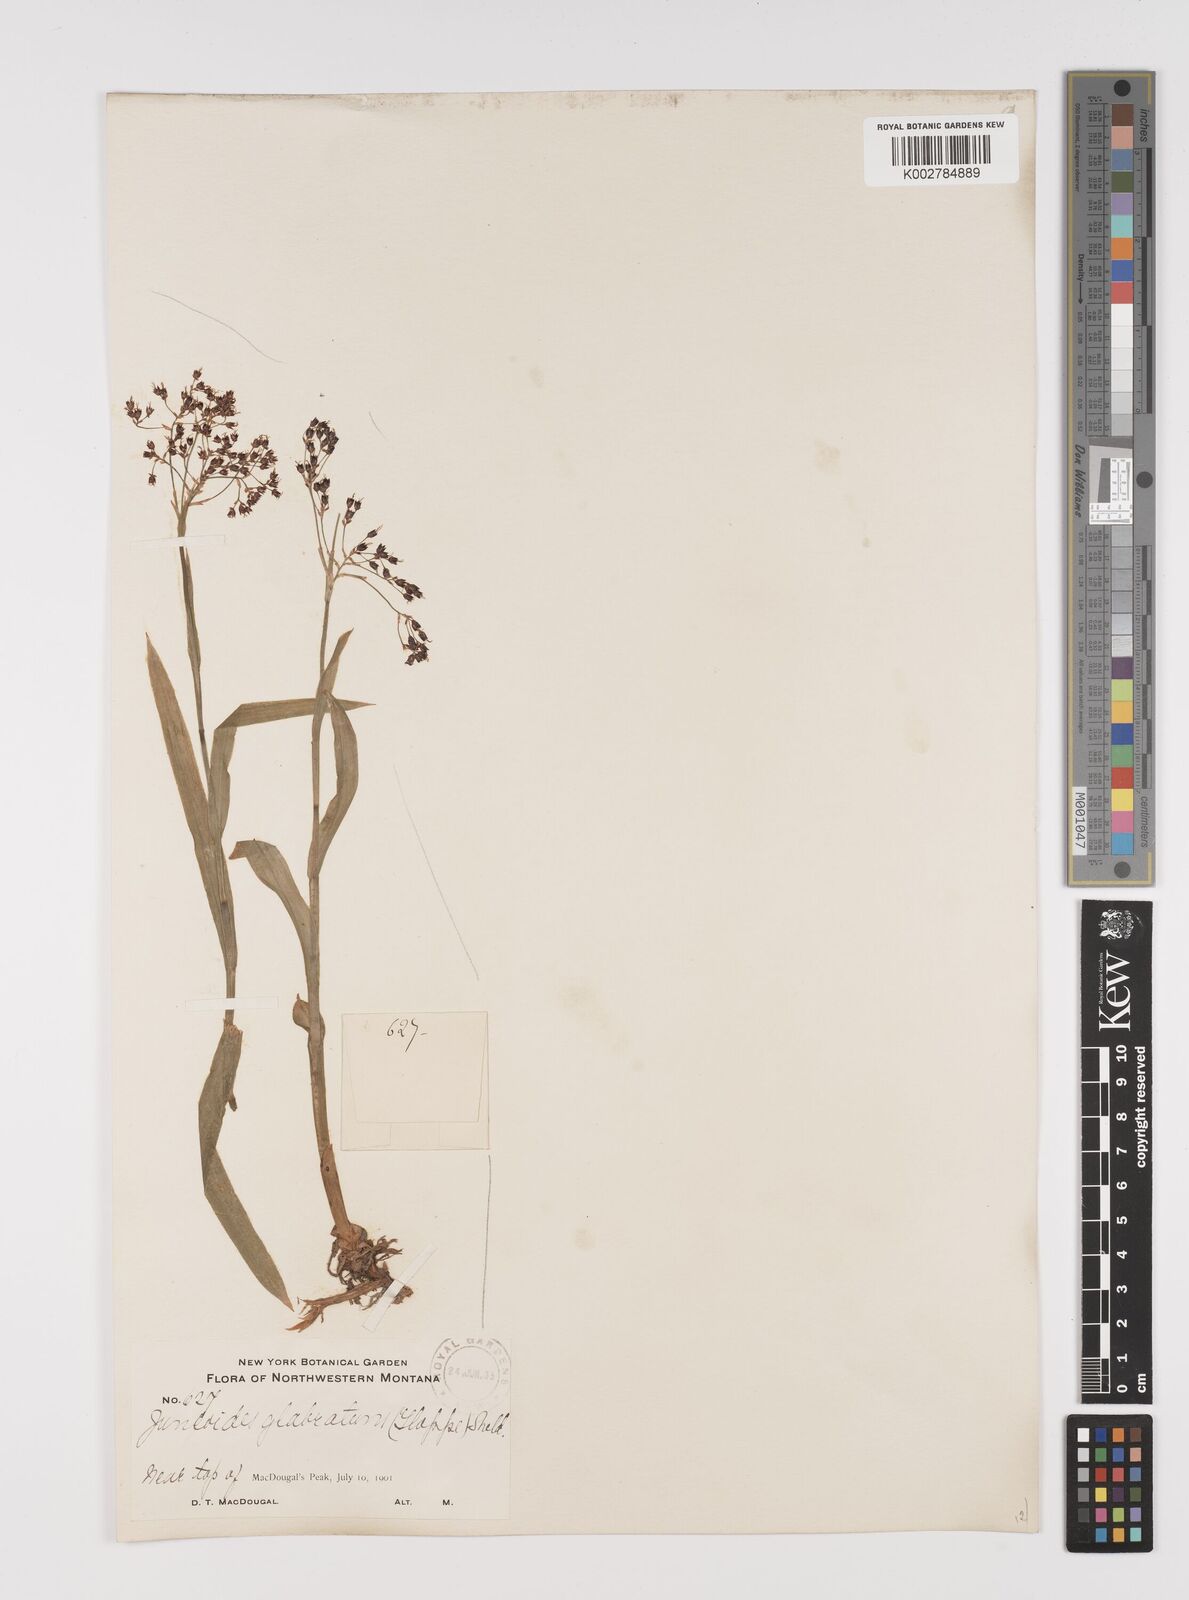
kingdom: Plantae
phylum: Tracheophyta
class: Liliopsida
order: Poales
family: Juncaceae
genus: Luzula
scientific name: Luzula glabrata
